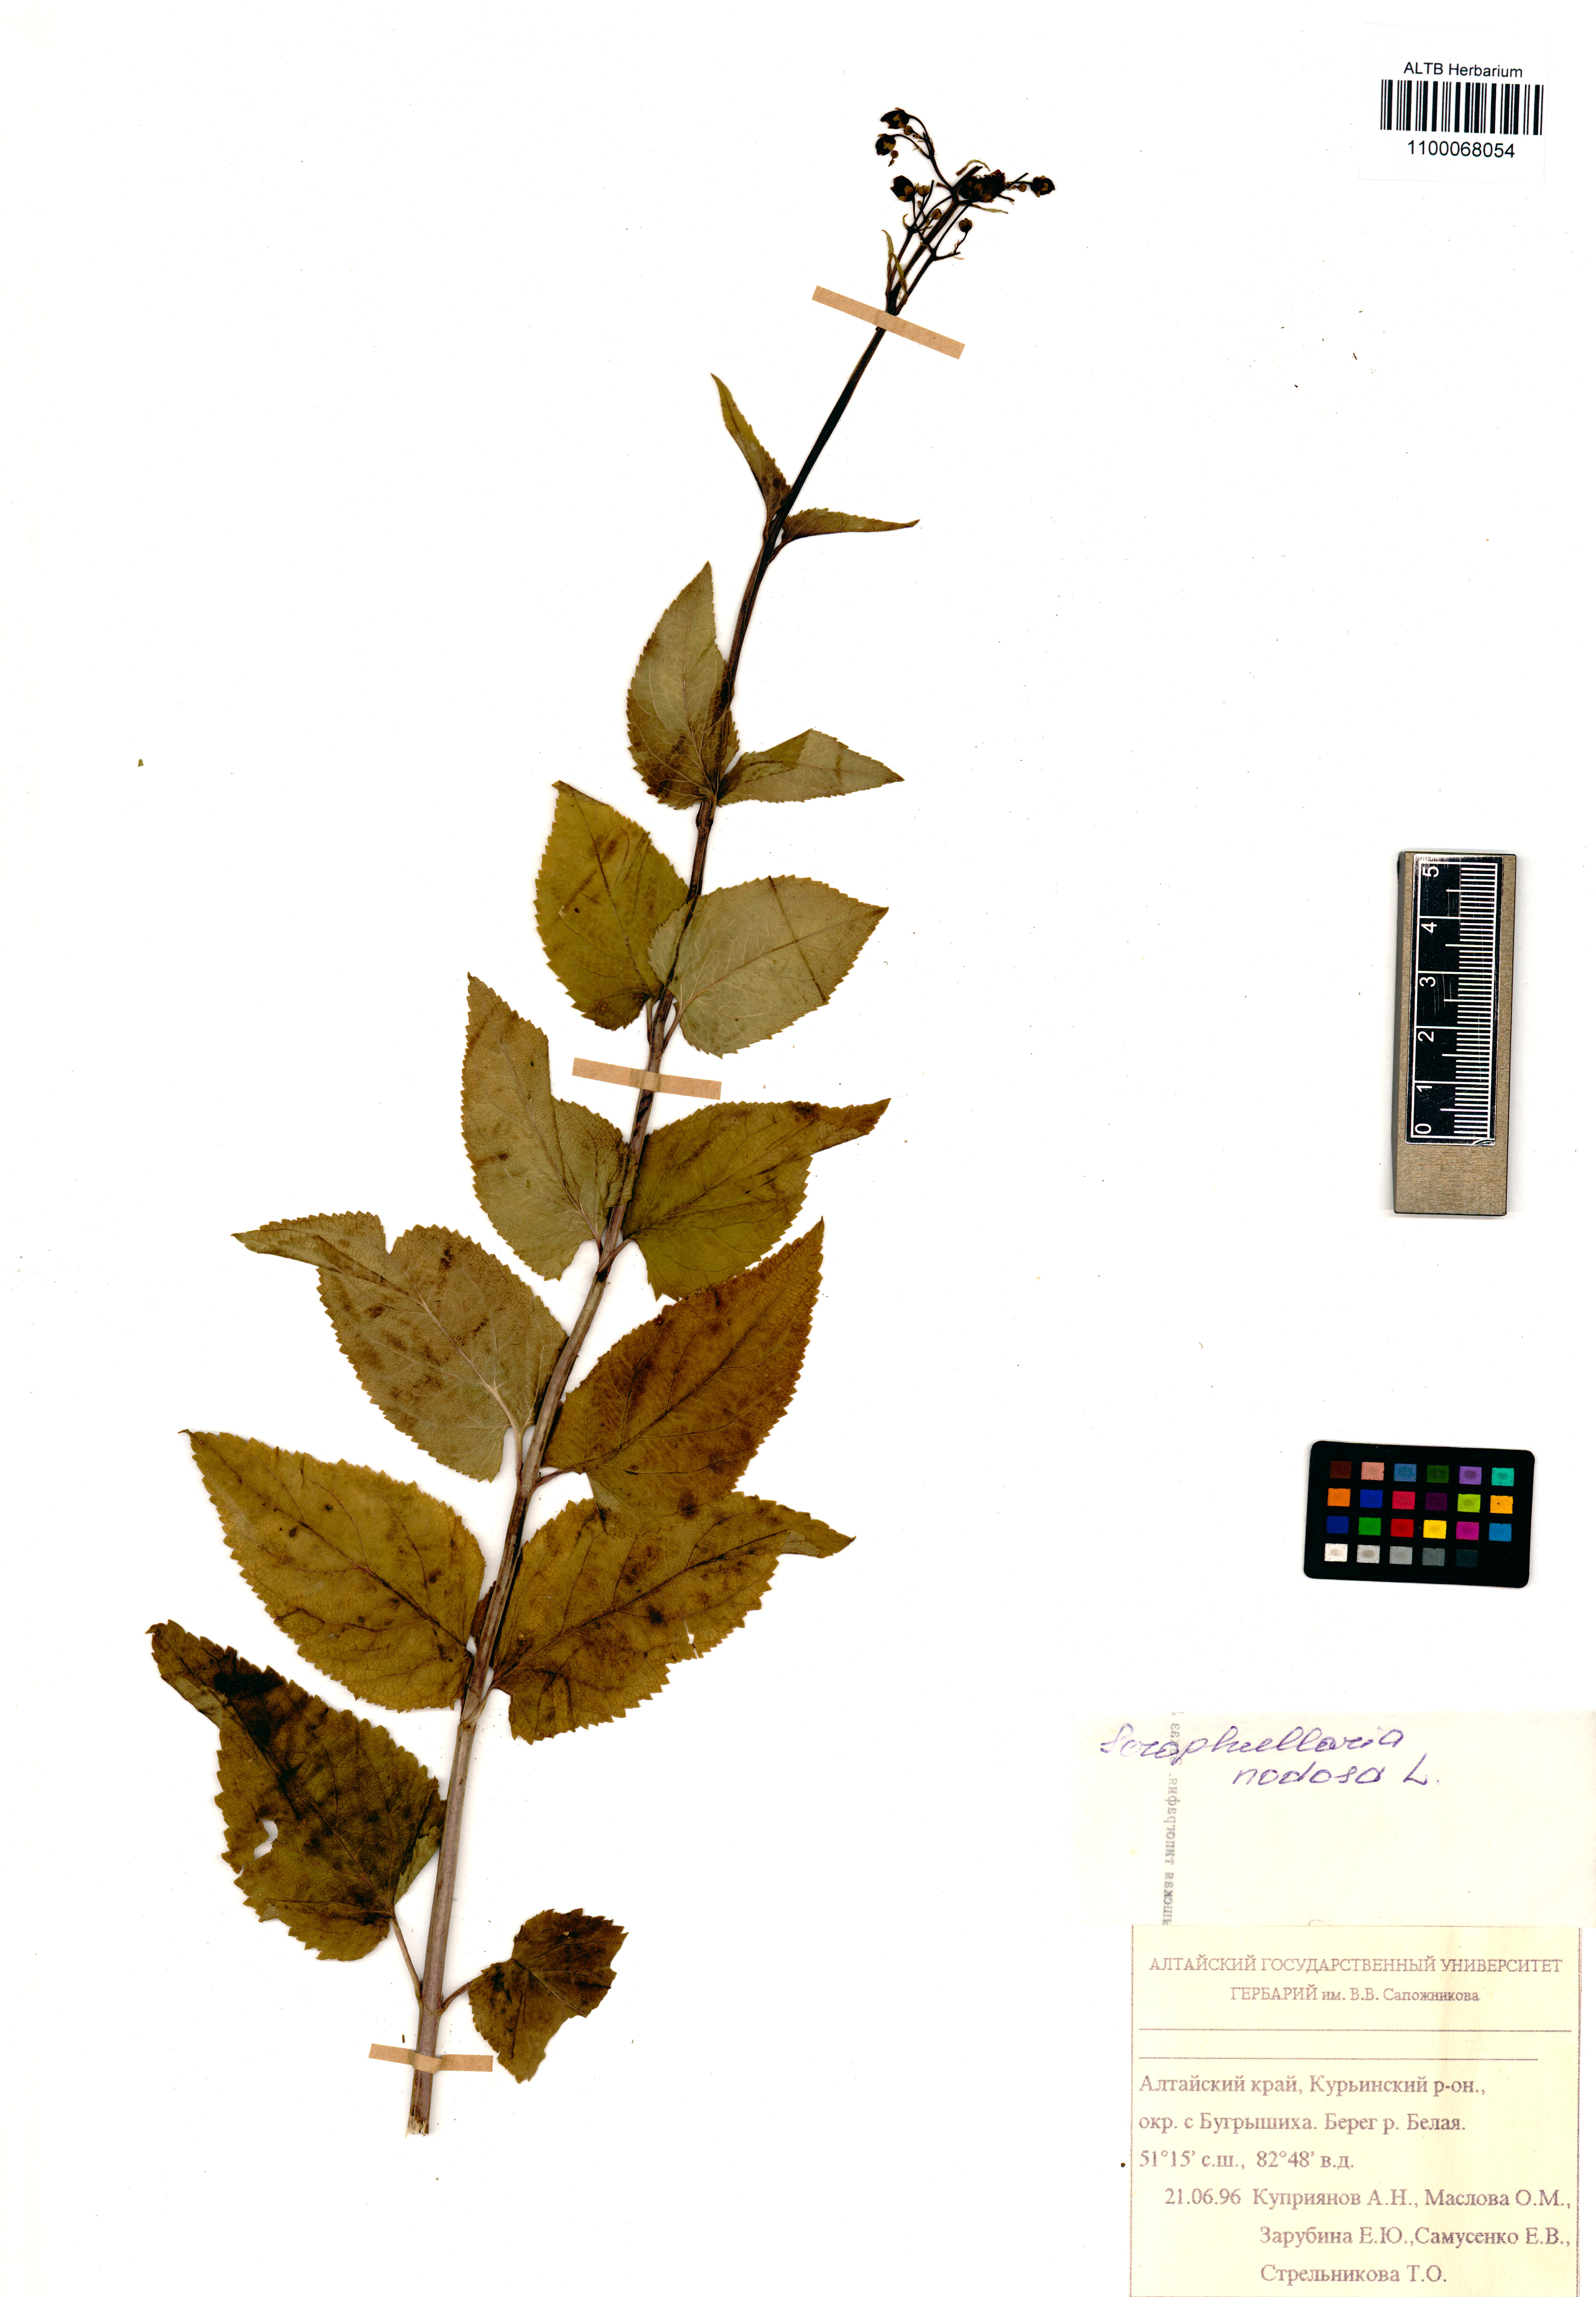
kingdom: Plantae
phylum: Tracheophyta
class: Magnoliopsida
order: Lamiales
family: Scrophulariaceae
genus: Scrophularia
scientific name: Scrophularia nodosa
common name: Common figwort
